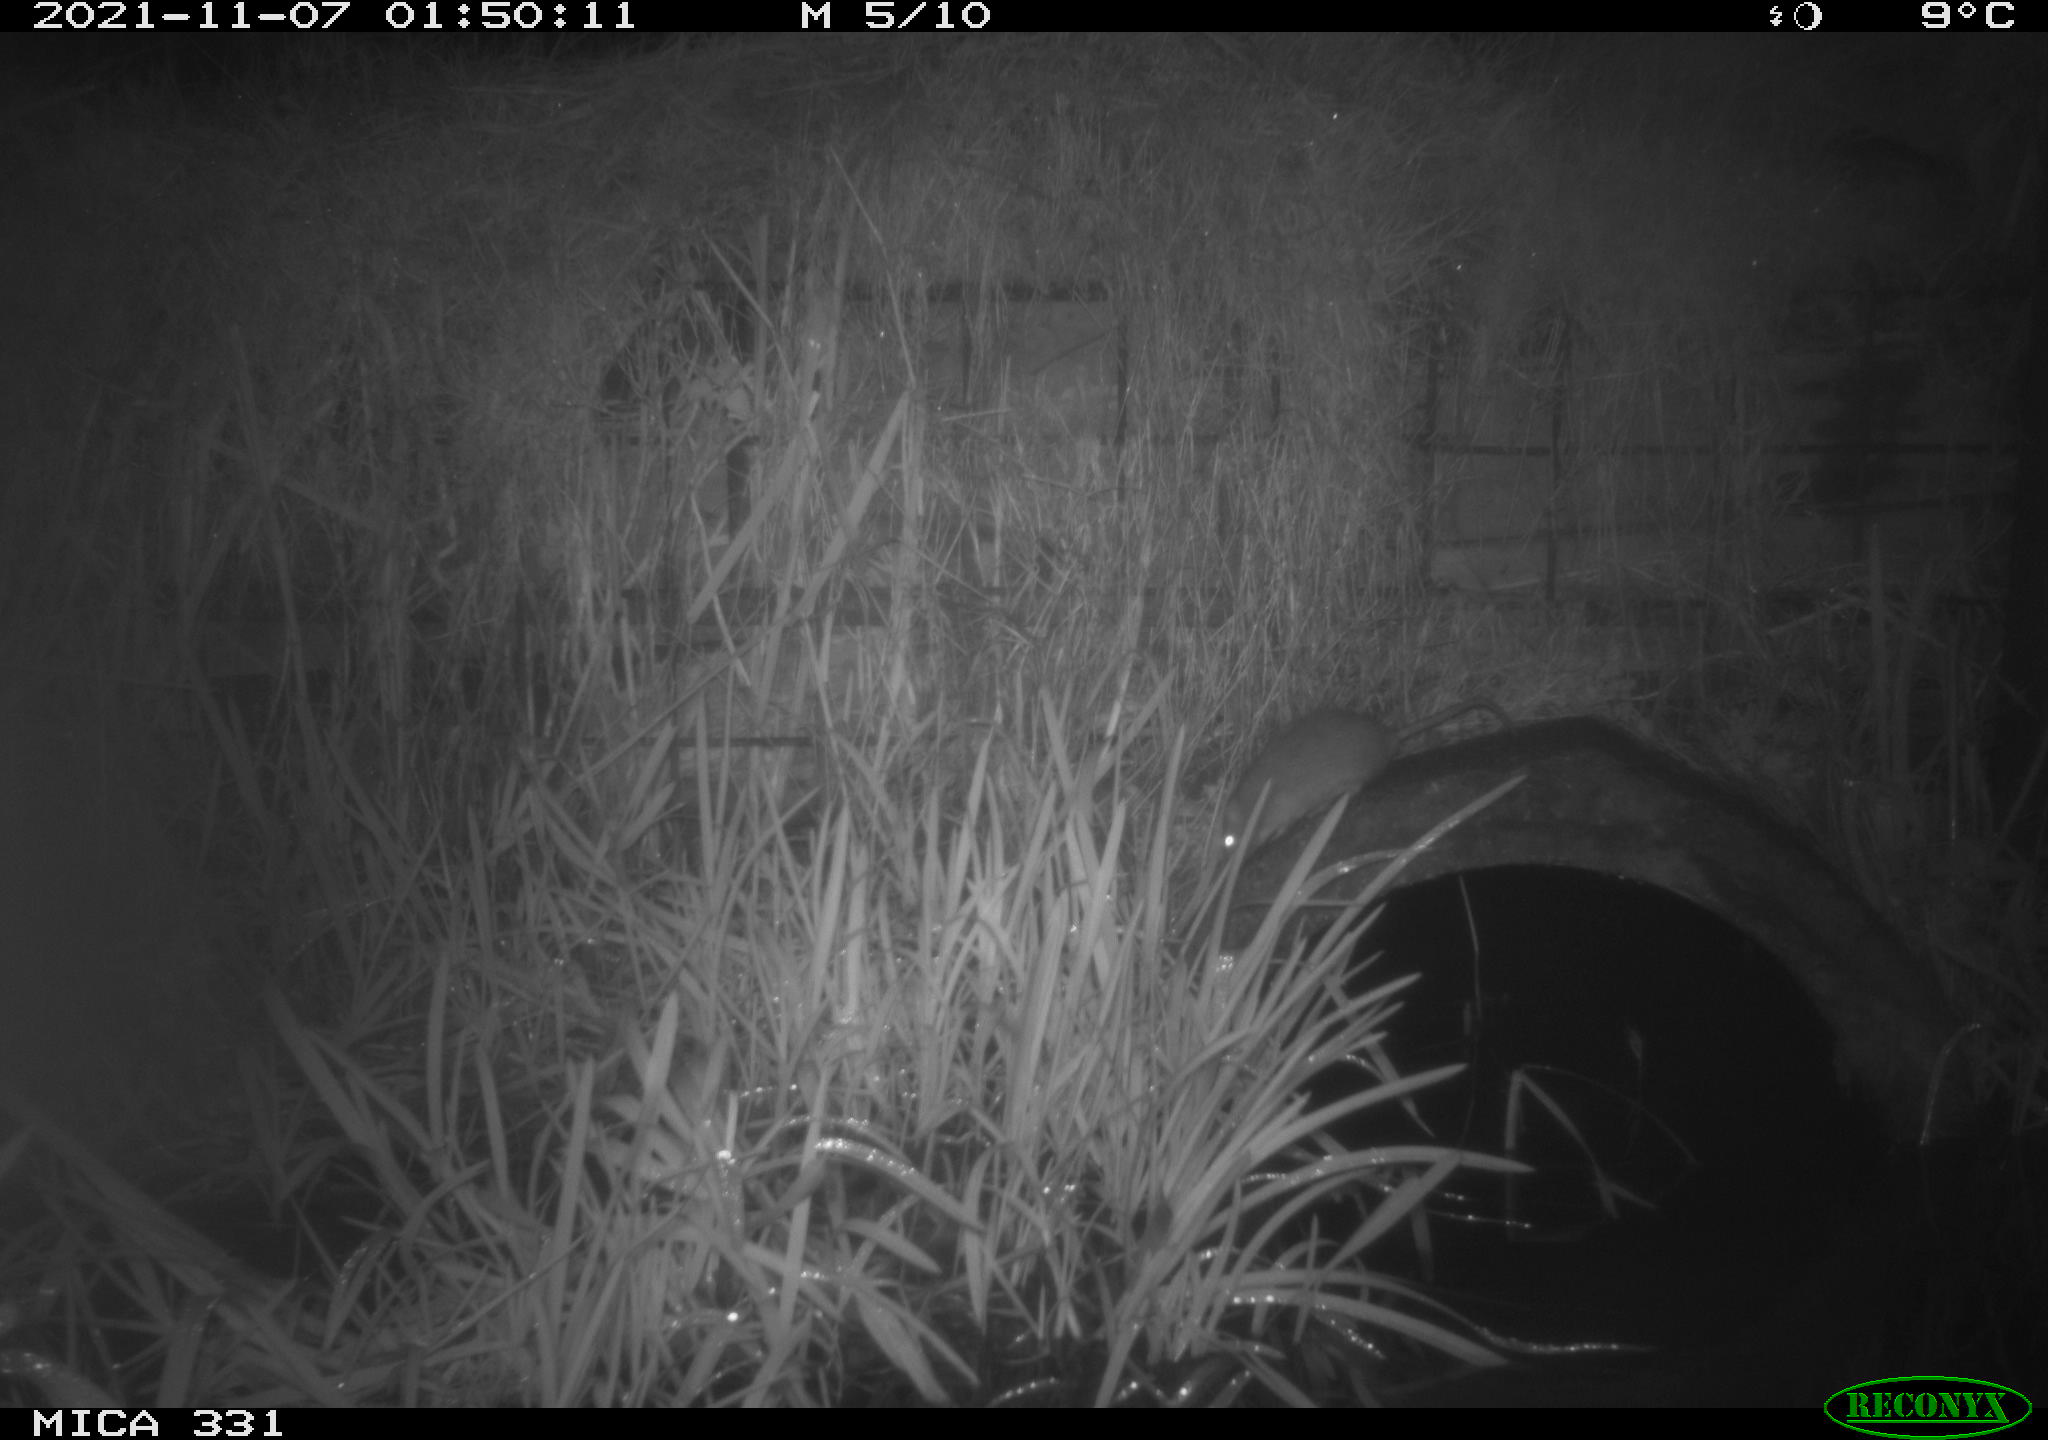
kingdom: Animalia
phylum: Chordata
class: Mammalia
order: Rodentia
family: Muridae
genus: Rattus
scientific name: Rattus norvegicus
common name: Brown rat
